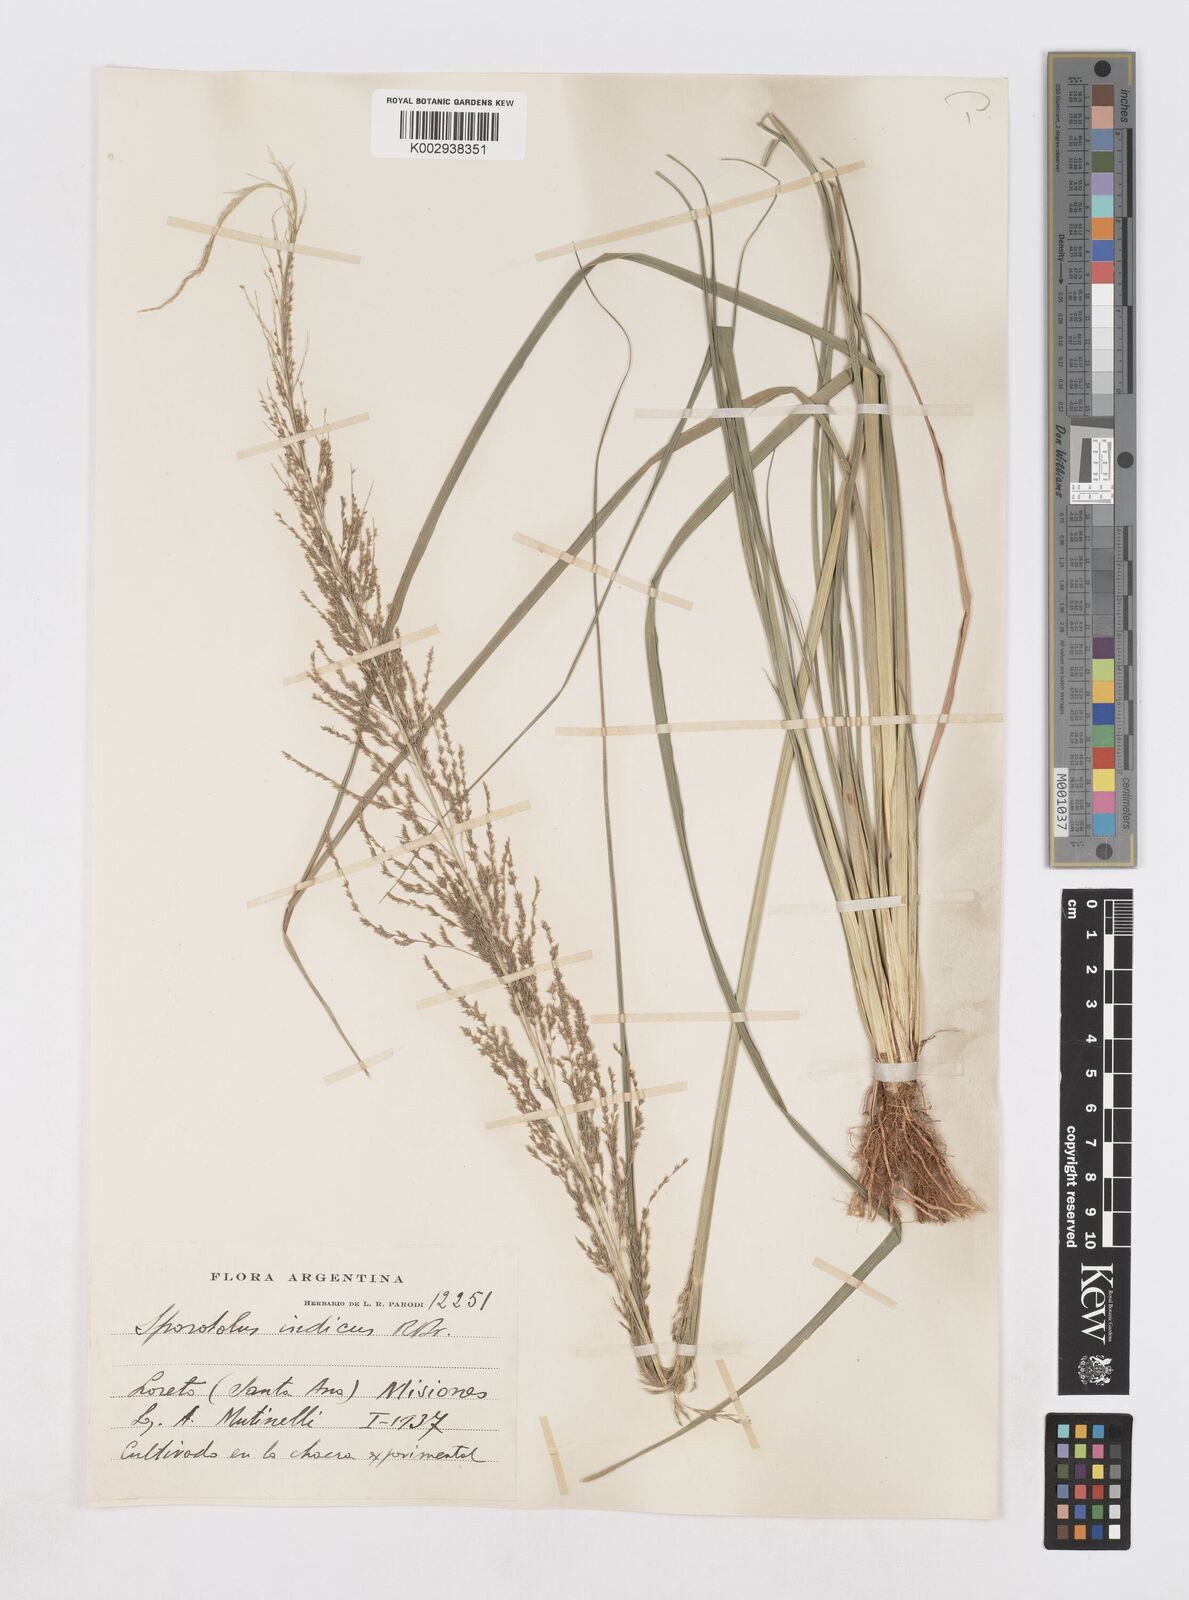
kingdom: Plantae
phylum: Tracheophyta
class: Liliopsida
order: Poales
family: Poaceae
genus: Sporobolus
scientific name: Sporobolus pseudairoides
